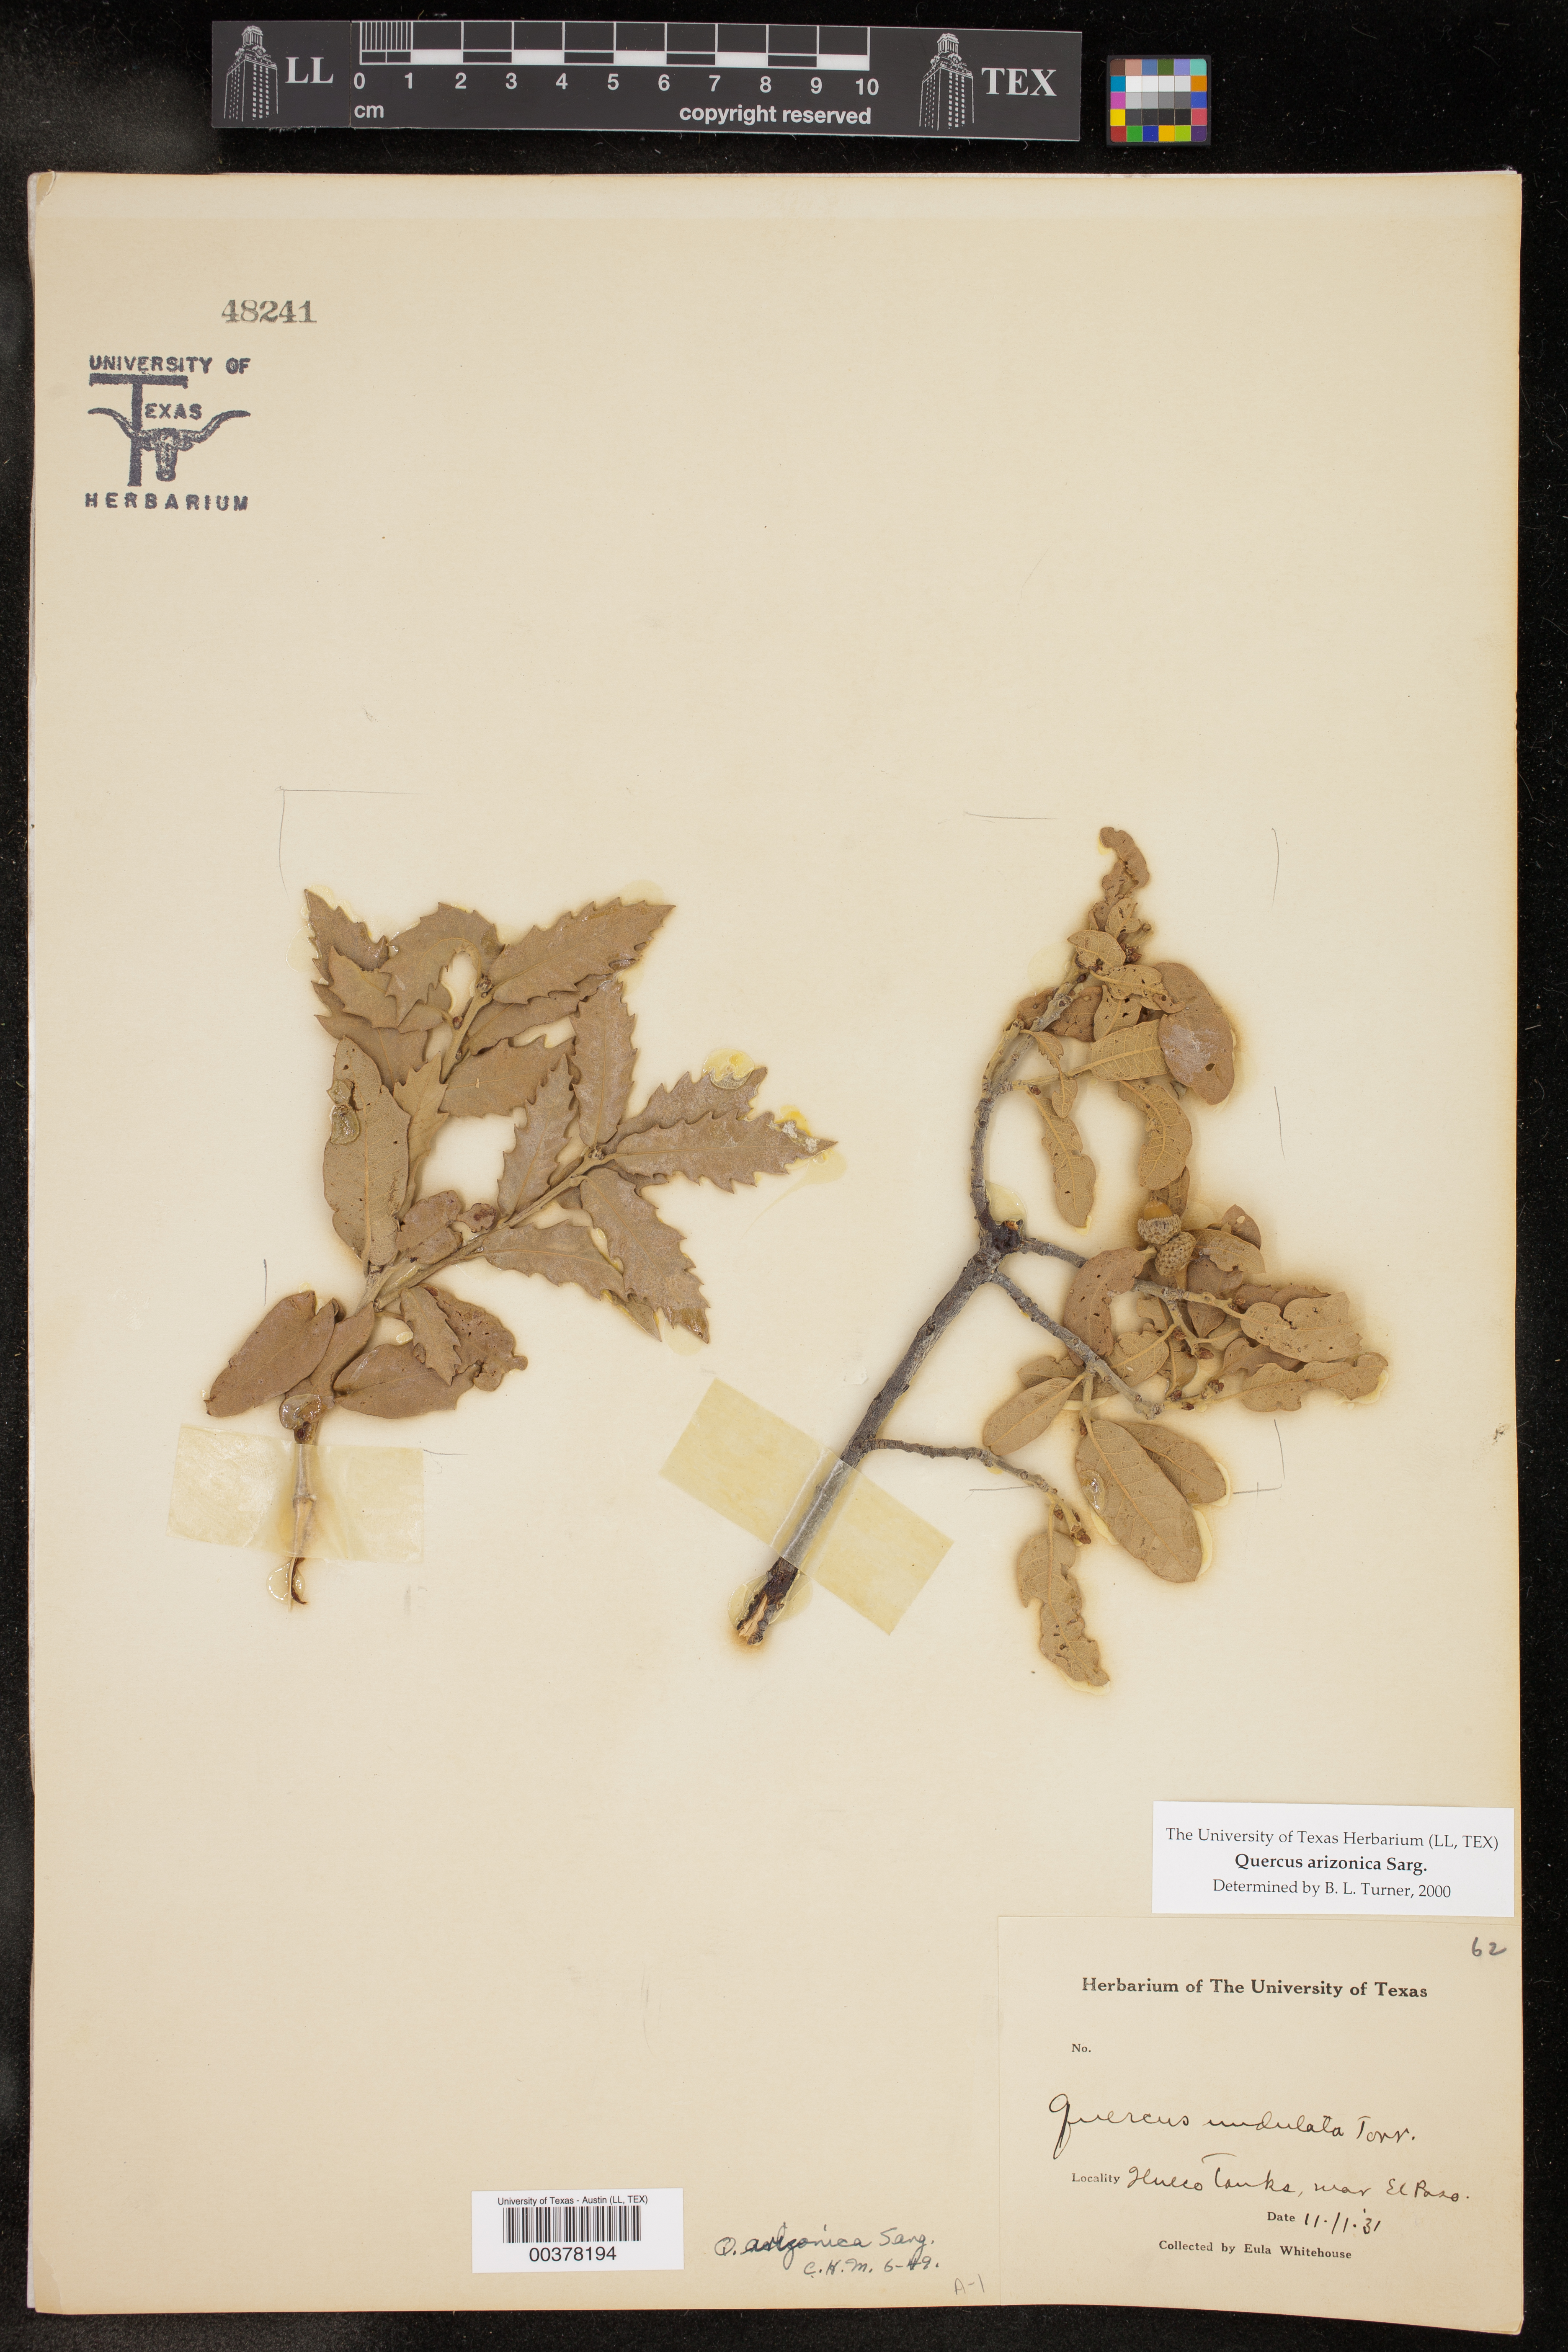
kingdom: Plantae
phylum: Tracheophyta
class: Magnoliopsida
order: Fagales
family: Fagaceae
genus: Quercus
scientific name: Quercus arizonica
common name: Arizona white oak
